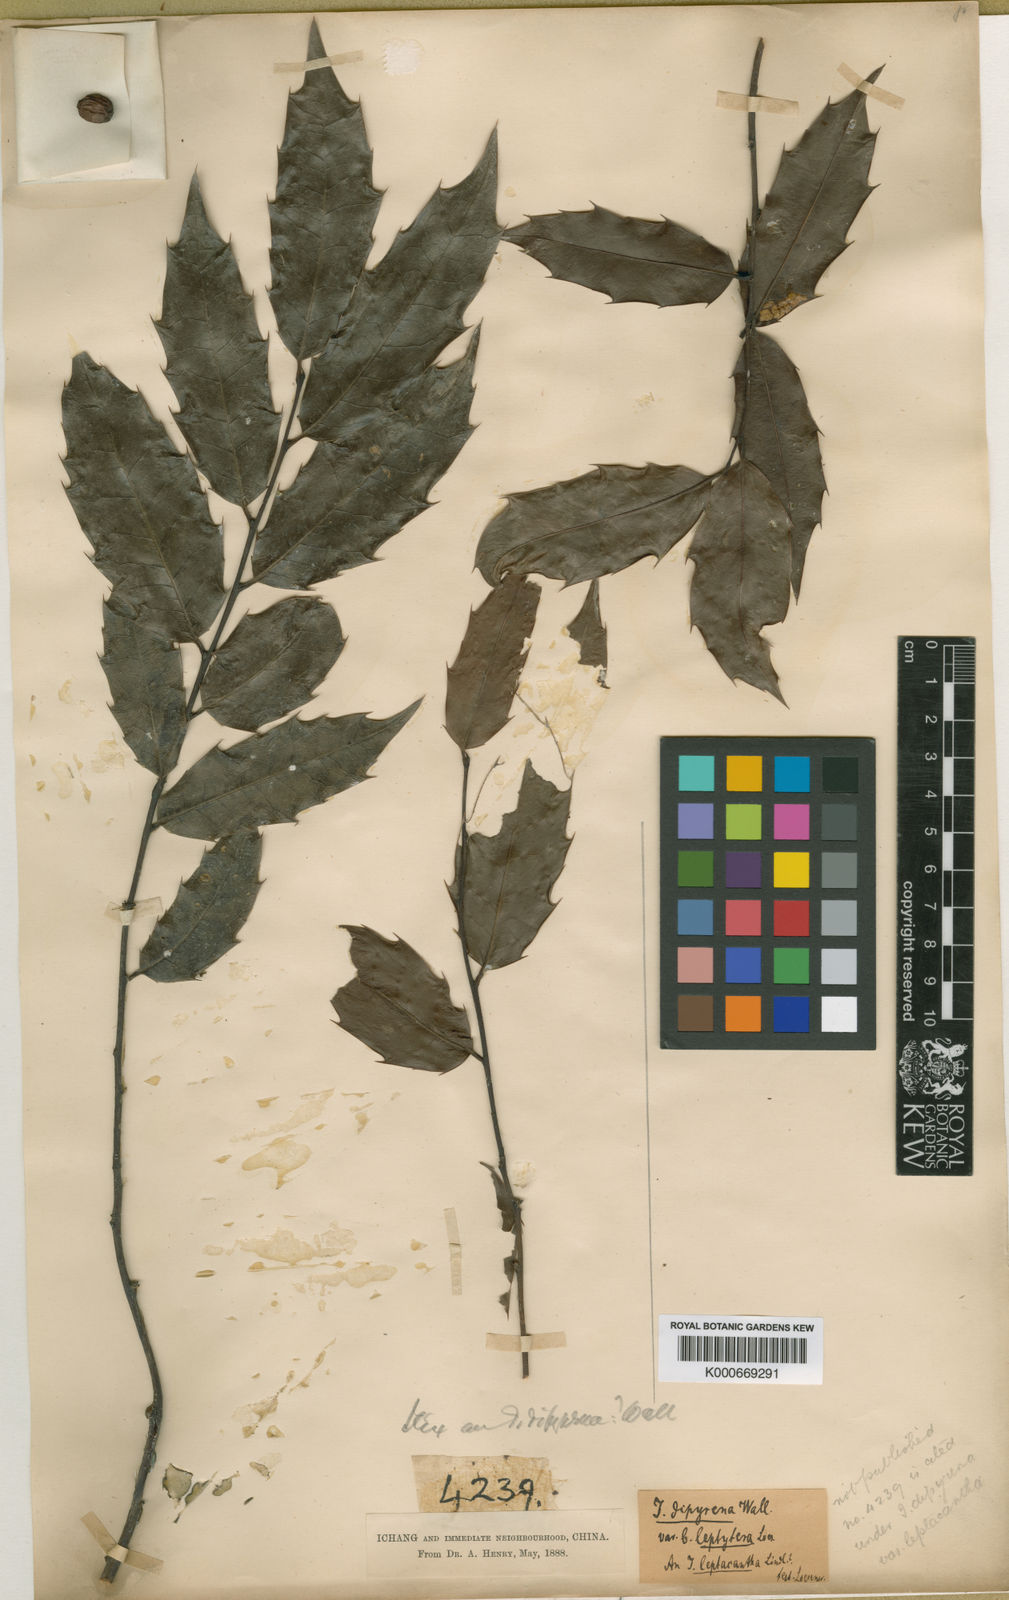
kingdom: Plantae
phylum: Tracheophyta
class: Magnoliopsida
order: Aquifoliales
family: Aquifoliaceae
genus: Ilex
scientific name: Ilex centrochinensis
